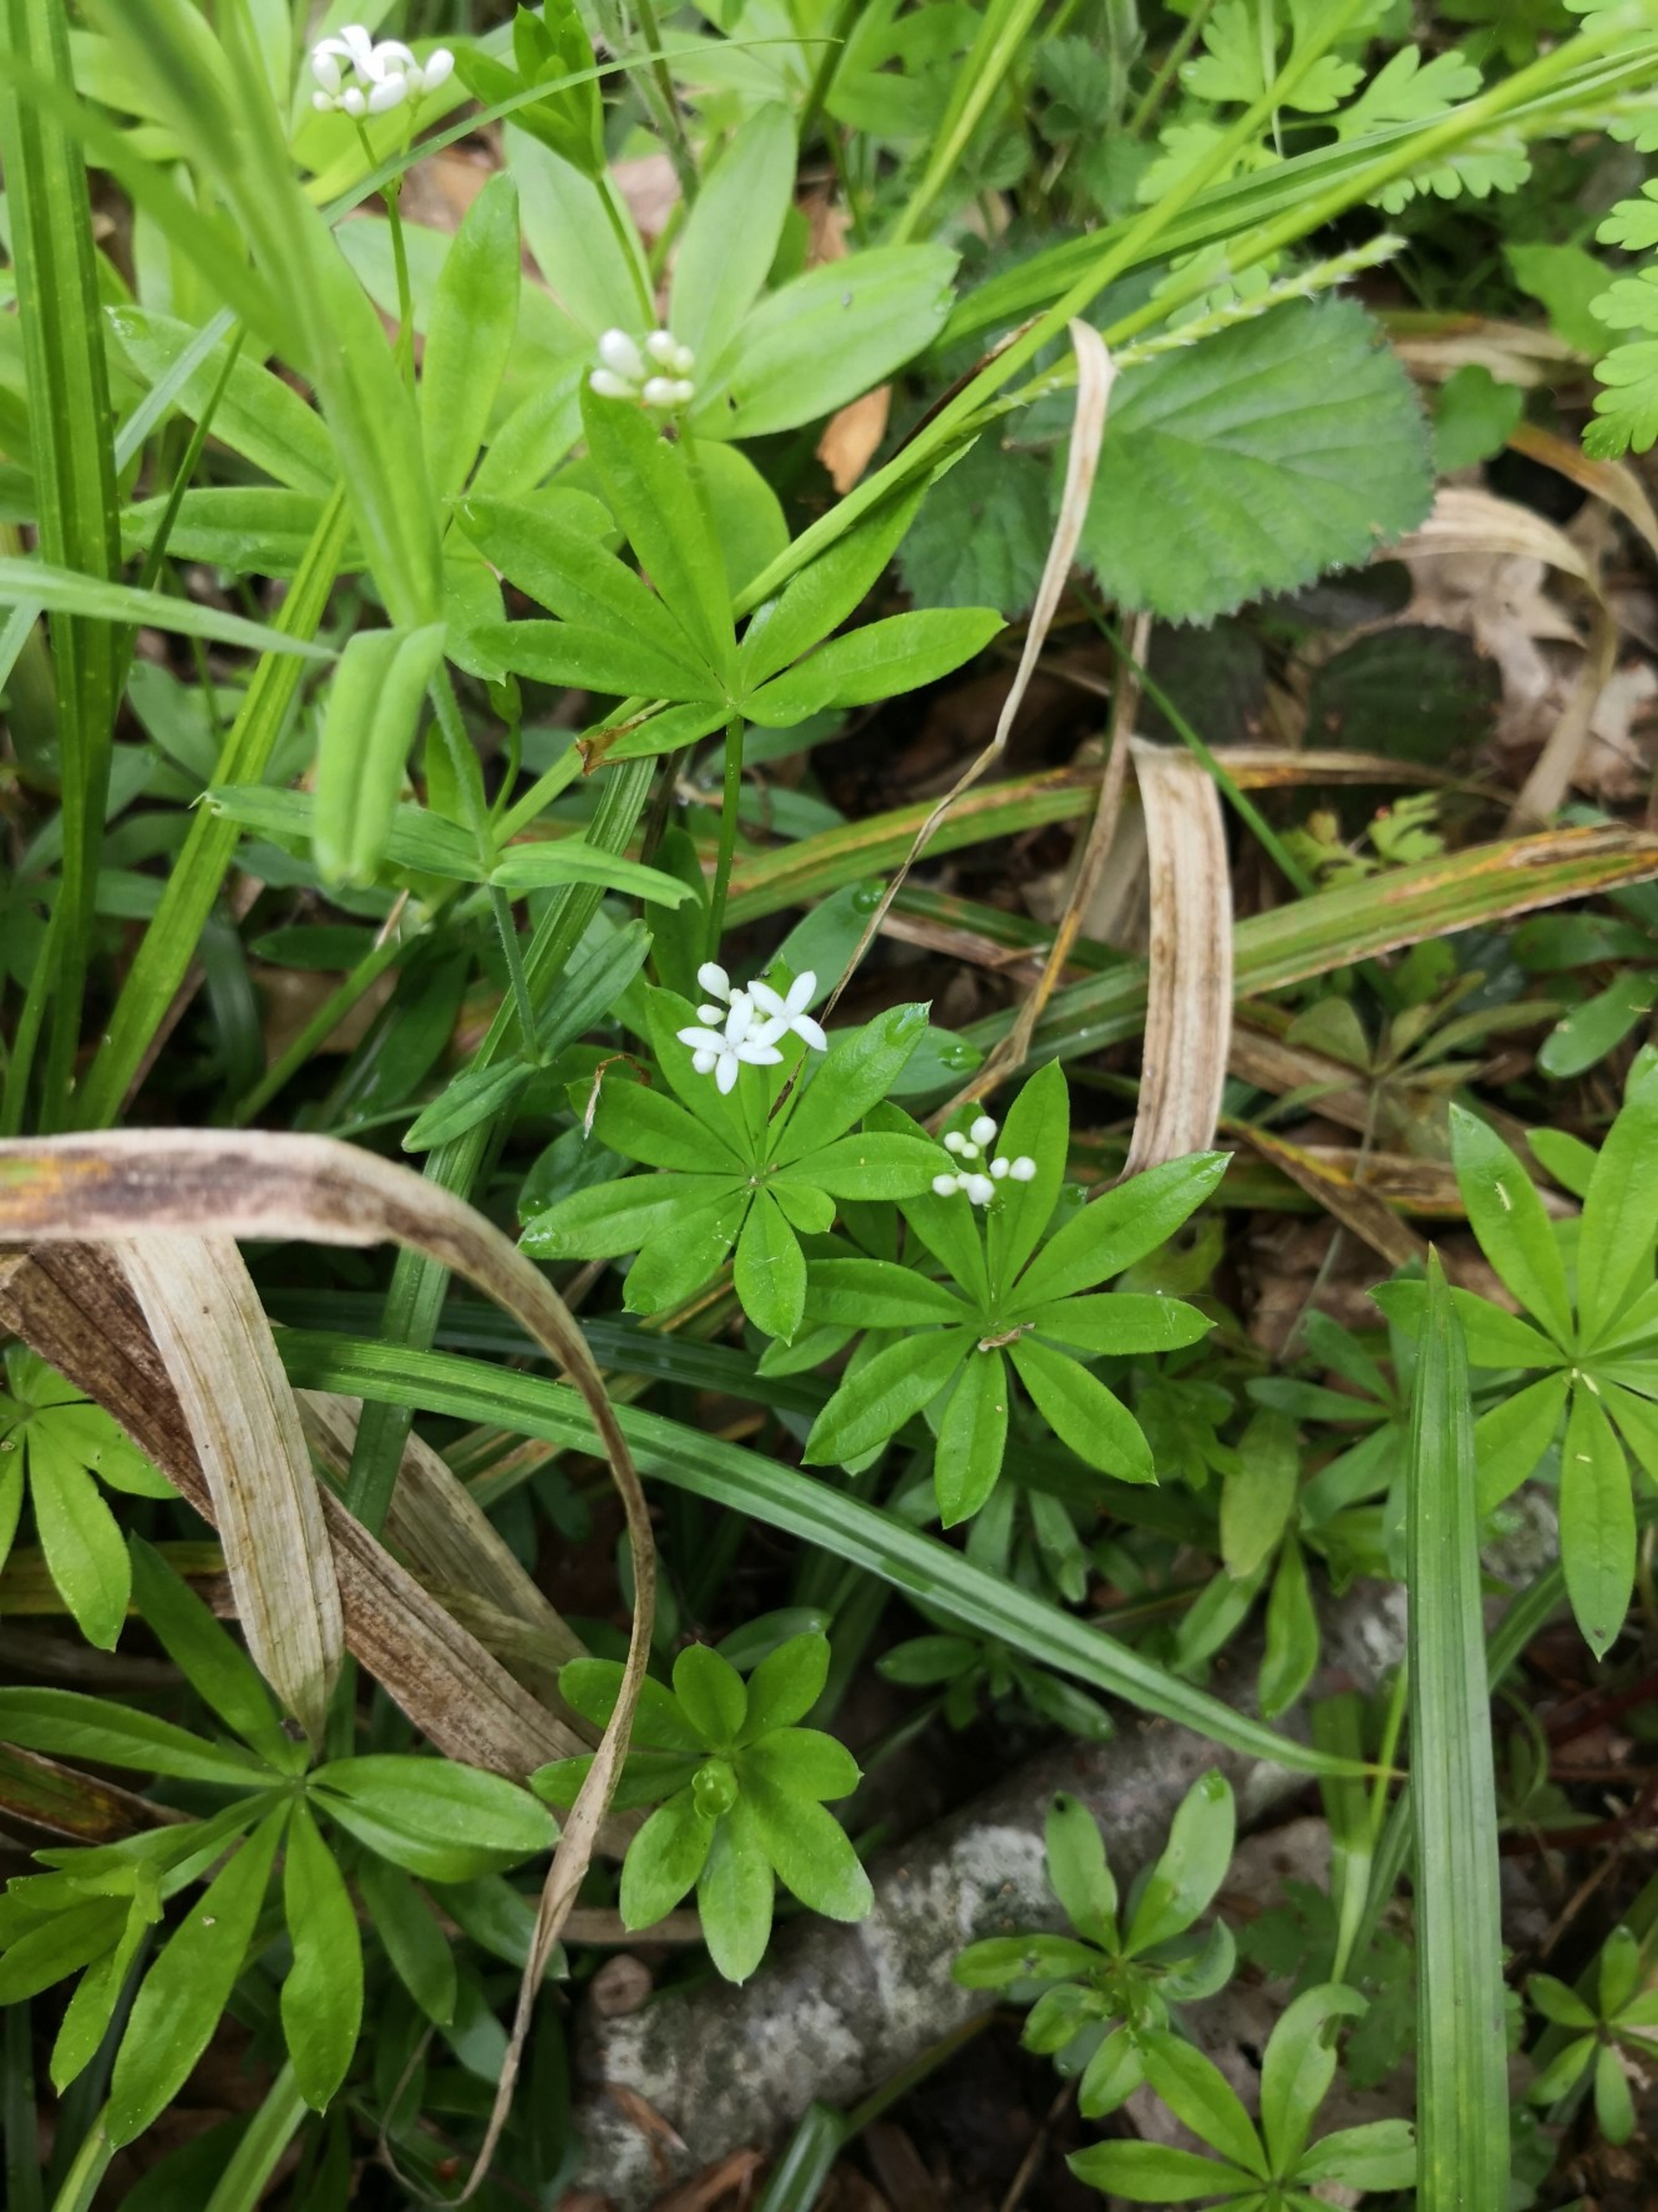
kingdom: Plantae
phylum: Tracheophyta
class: Magnoliopsida
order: Gentianales
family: Rubiaceae
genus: Galium
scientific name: Galium odoratum
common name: Skovmærke
